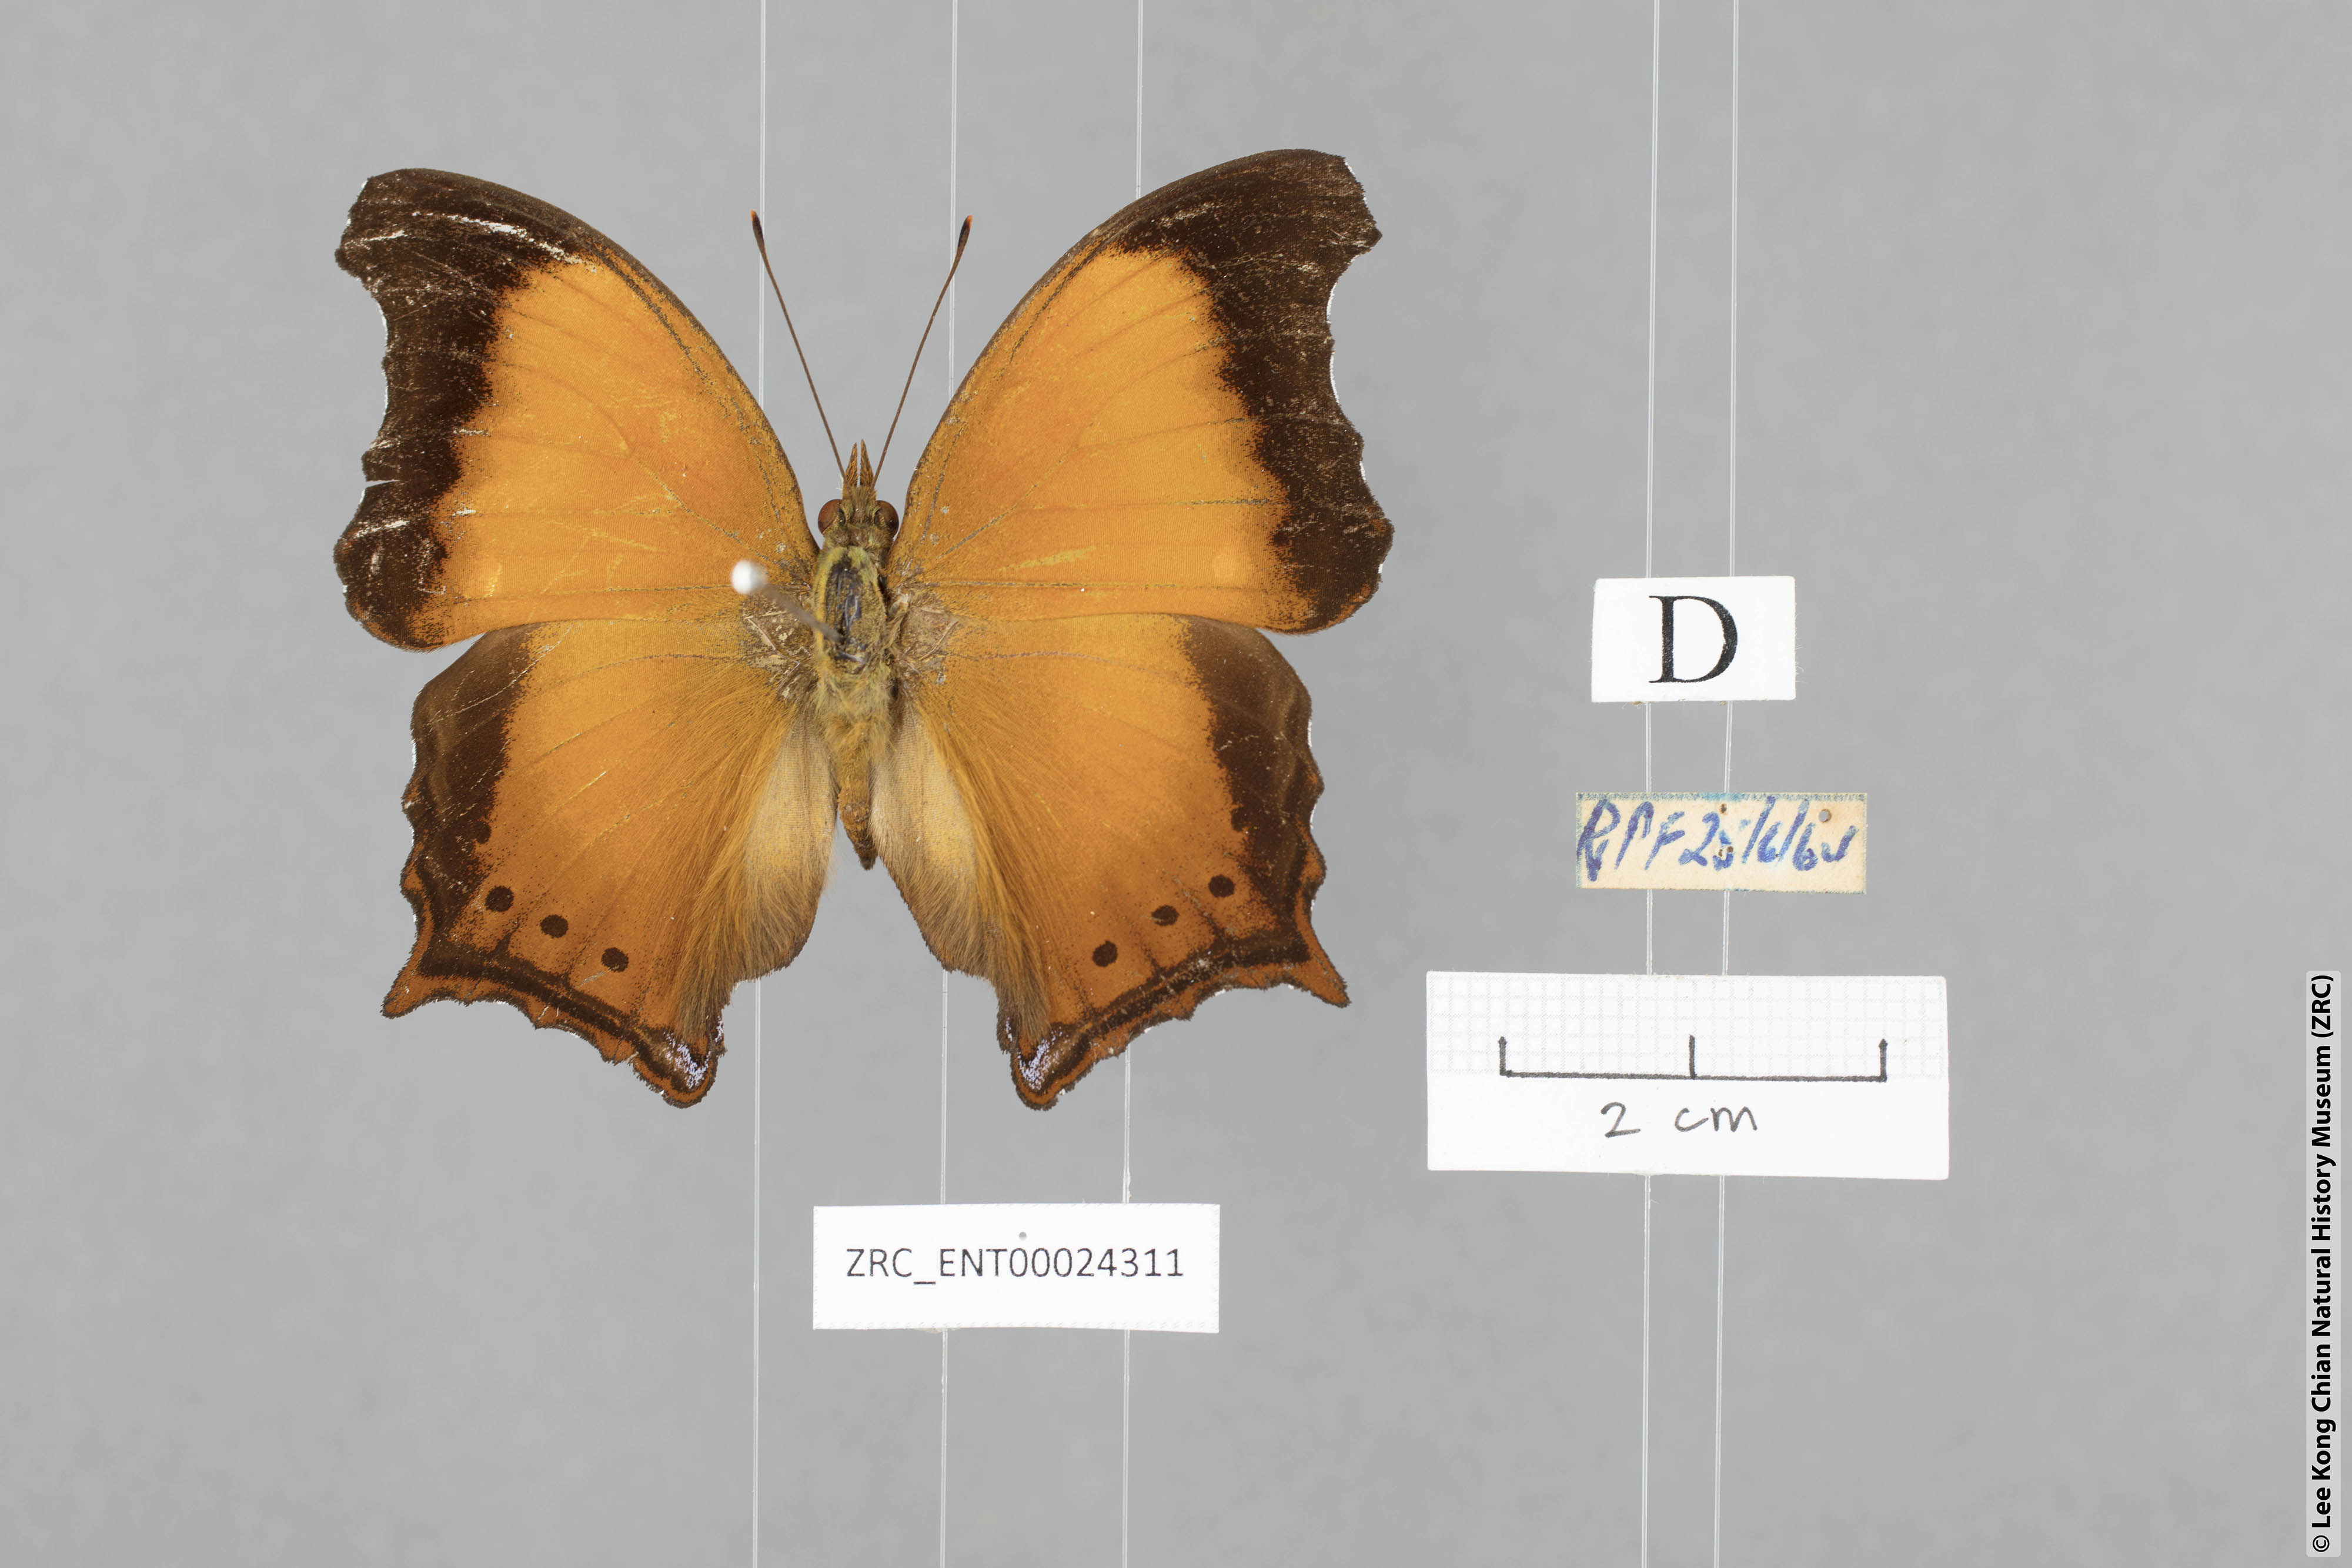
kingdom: Animalia
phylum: Arthropoda
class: Insecta
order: Lepidoptera
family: Nymphalidae
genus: Rhinopalpa
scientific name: Rhinopalpa polynice
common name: Wizard
